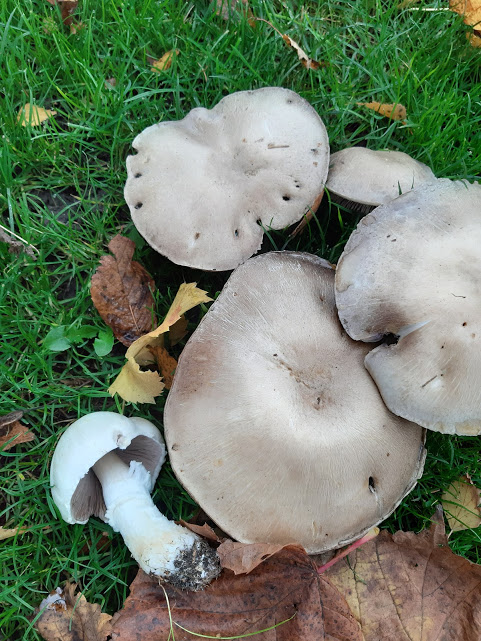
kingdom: Fungi
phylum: Basidiomycota
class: Agaricomycetes
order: Agaricales
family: Agaricaceae
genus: Agaricus
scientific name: Agaricus
